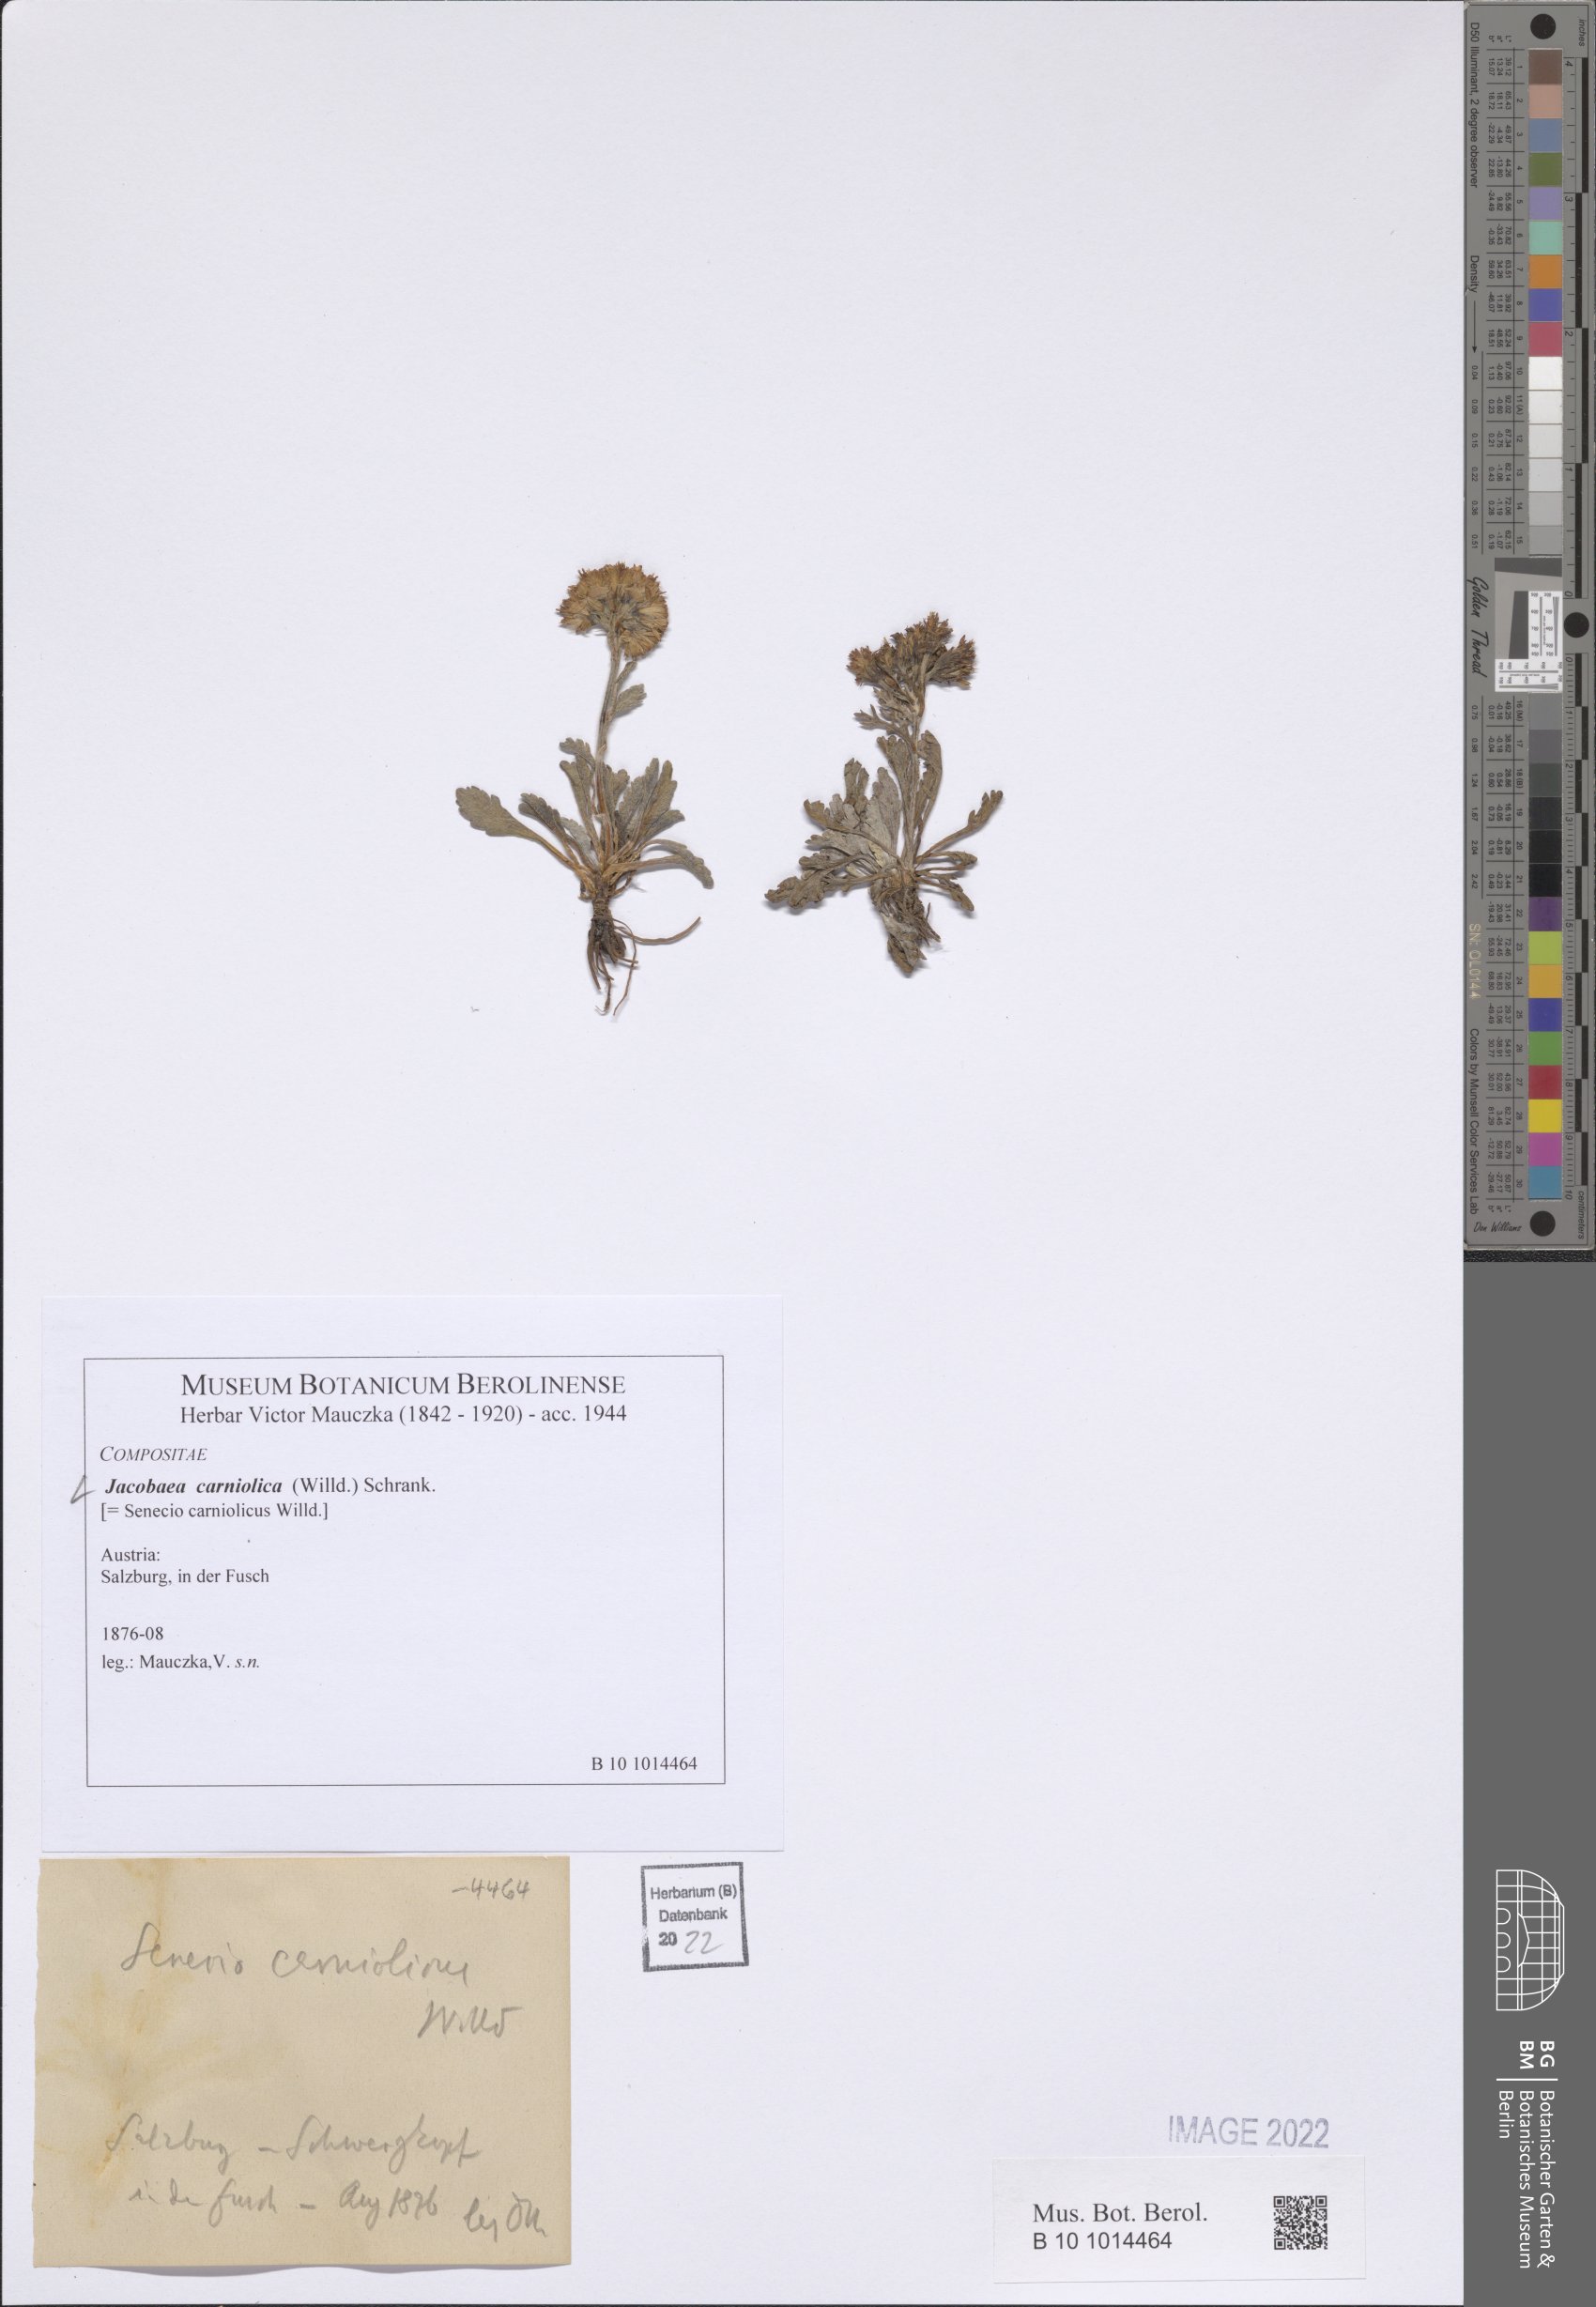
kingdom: Plantae
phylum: Tracheophyta
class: Magnoliopsida
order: Asterales
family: Asteraceae
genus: Jacobaea
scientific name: Jacobaea carniolica
